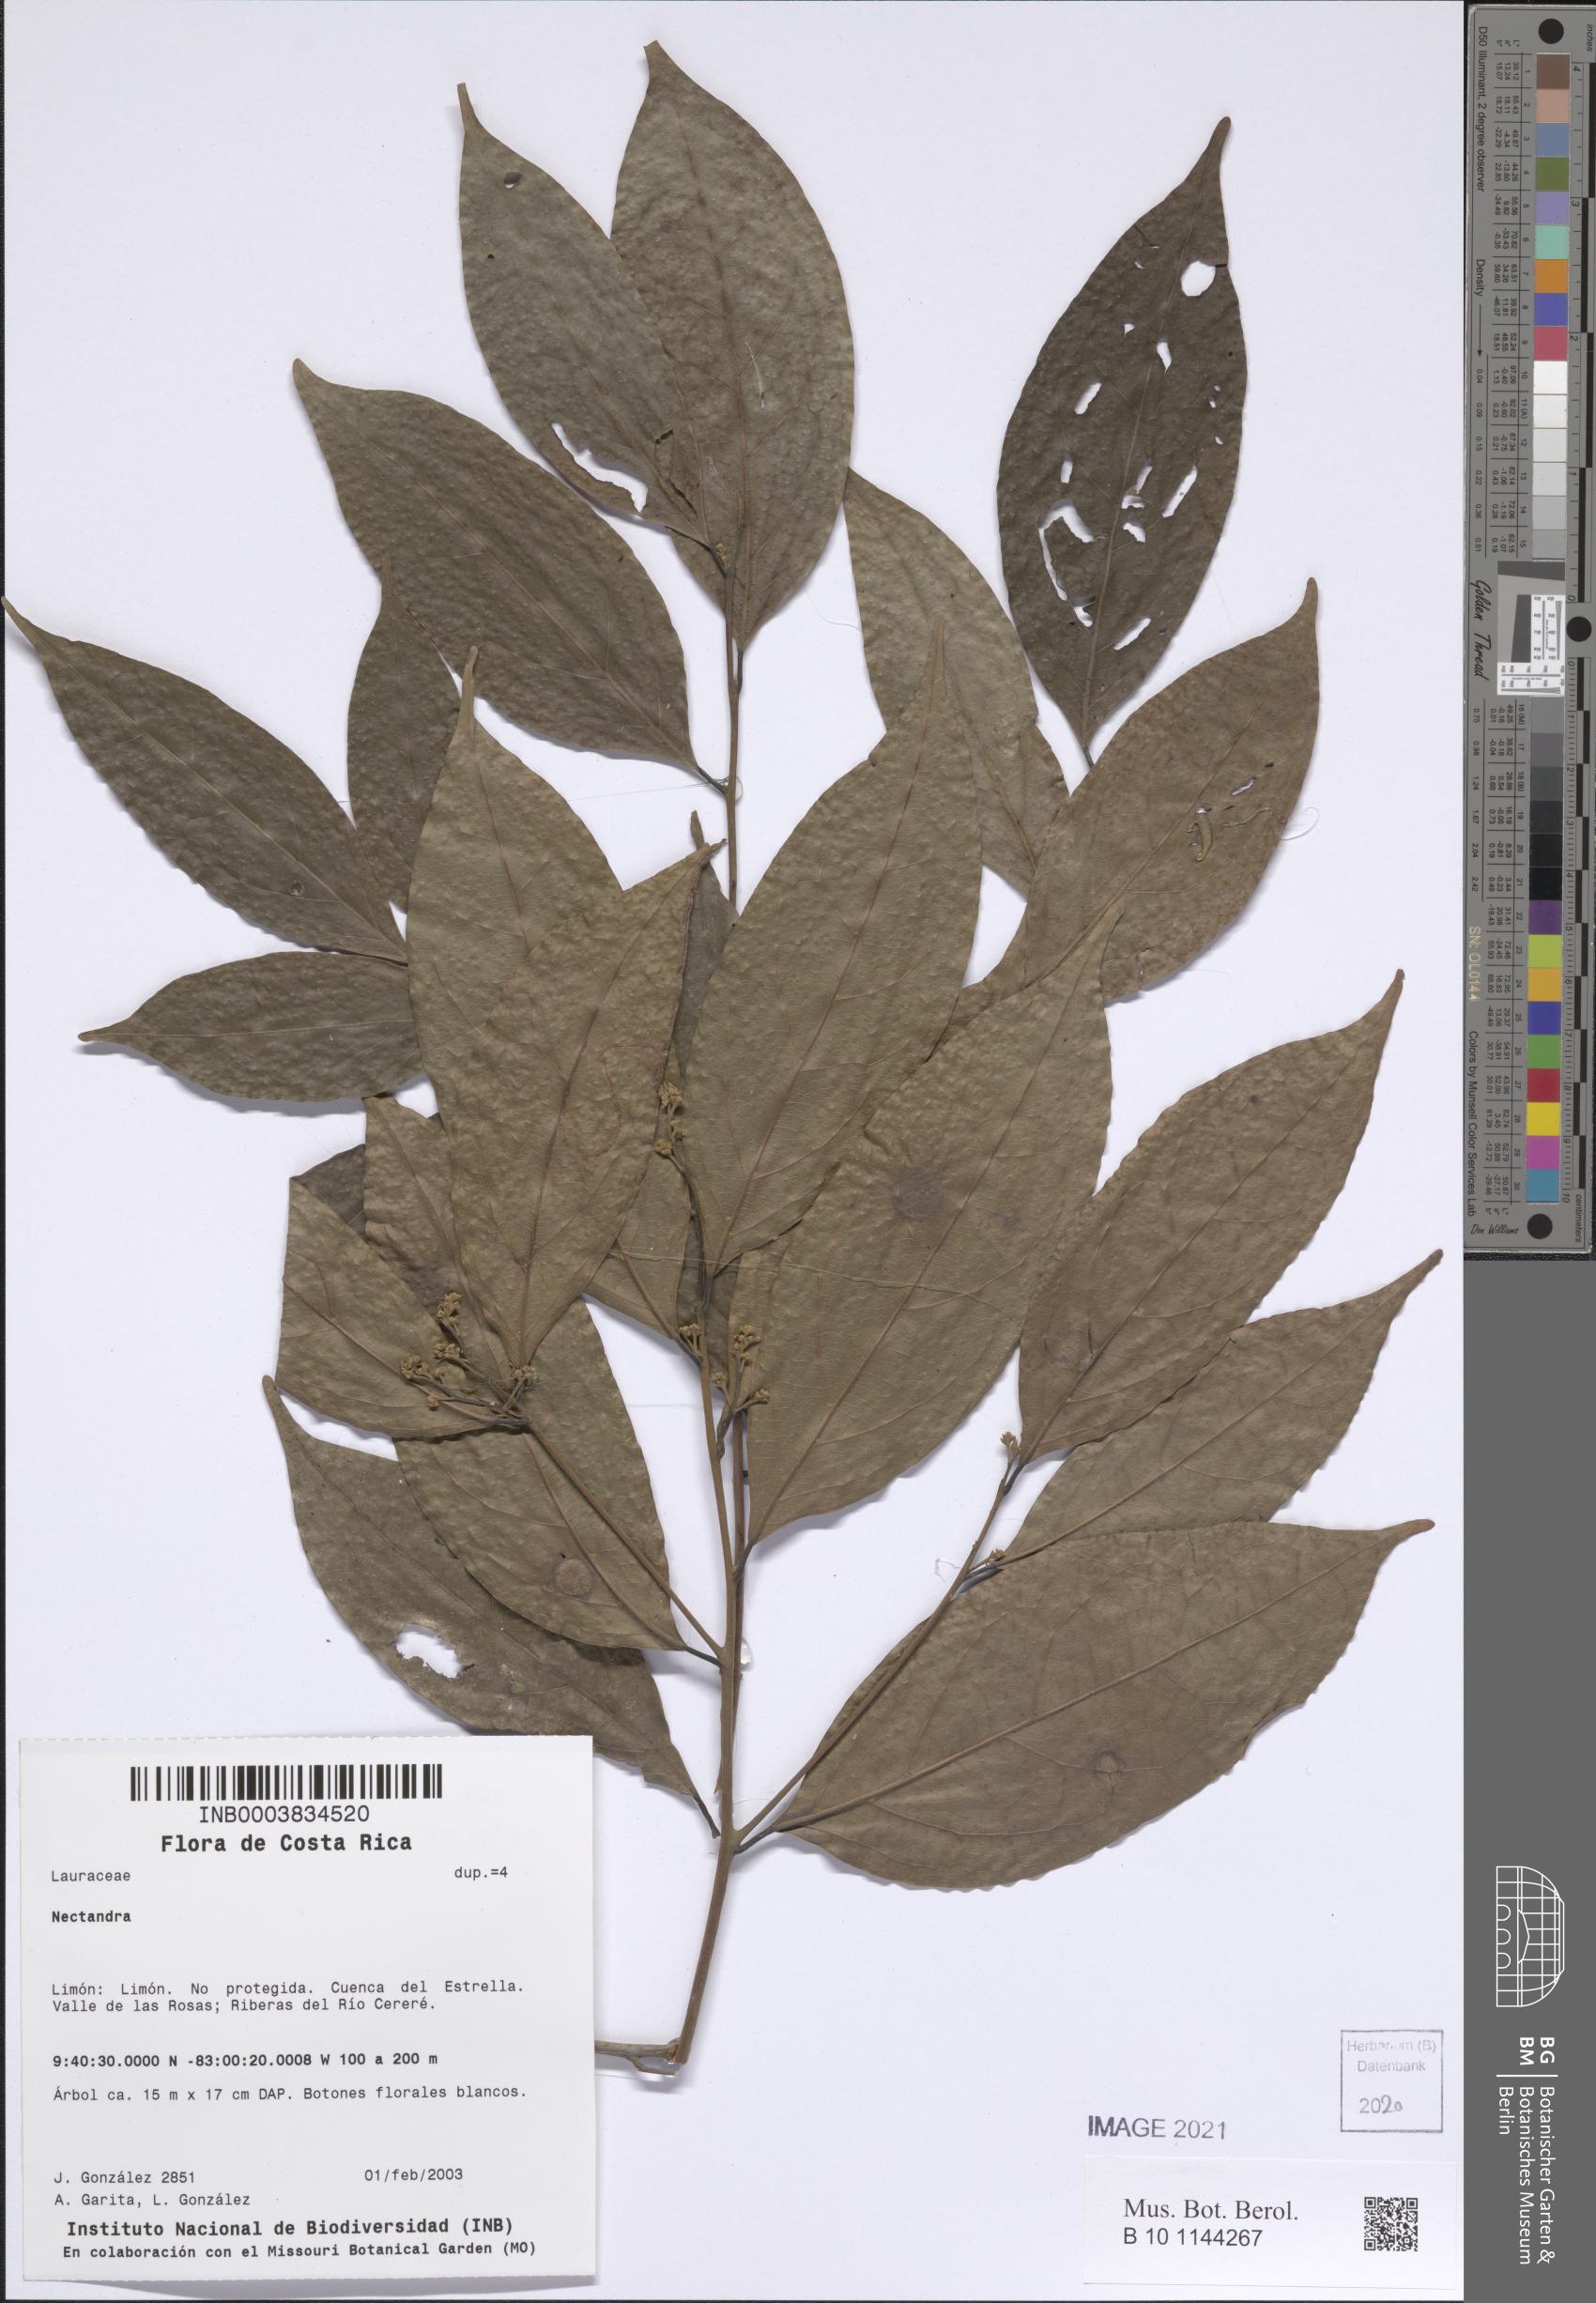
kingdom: Plantae
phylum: Tracheophyta
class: Magnoliopsida
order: Laurales
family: Lauraceae
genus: Nectandra
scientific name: Nectandra
